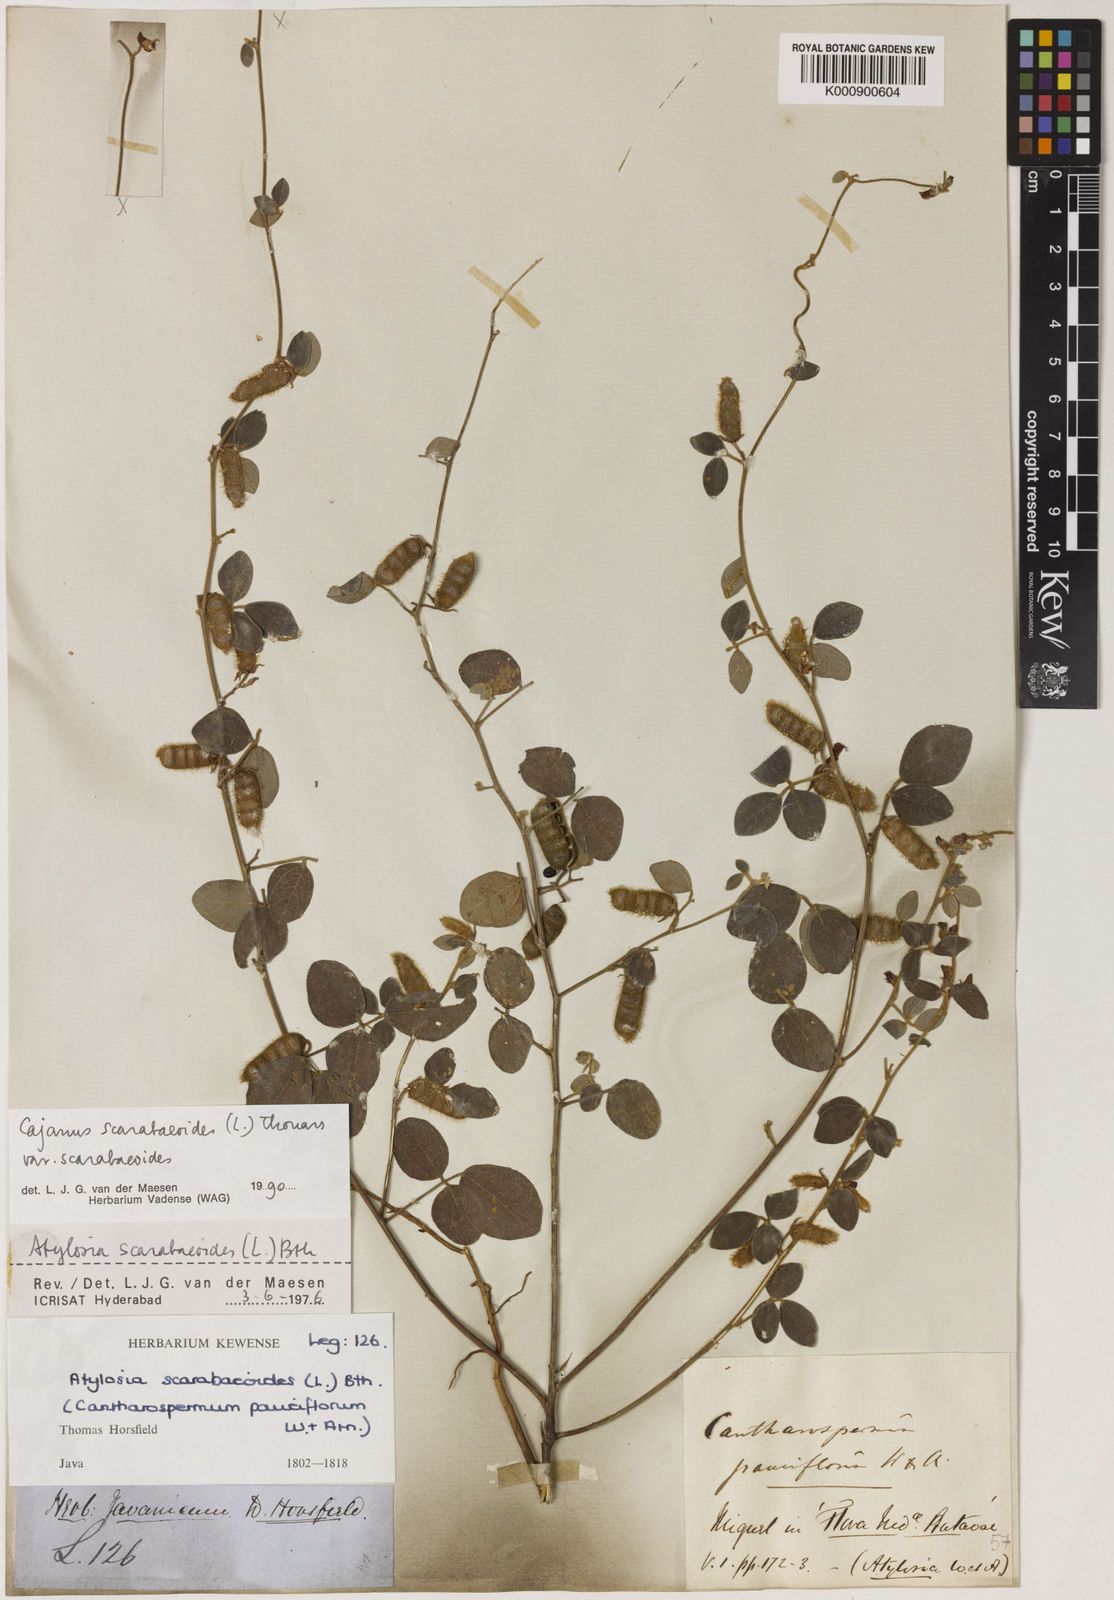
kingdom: Plantae
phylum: Tracheophyta
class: Magnoliopsida
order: Fabales
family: Fabaceae
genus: Cajanus
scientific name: Cajanus
